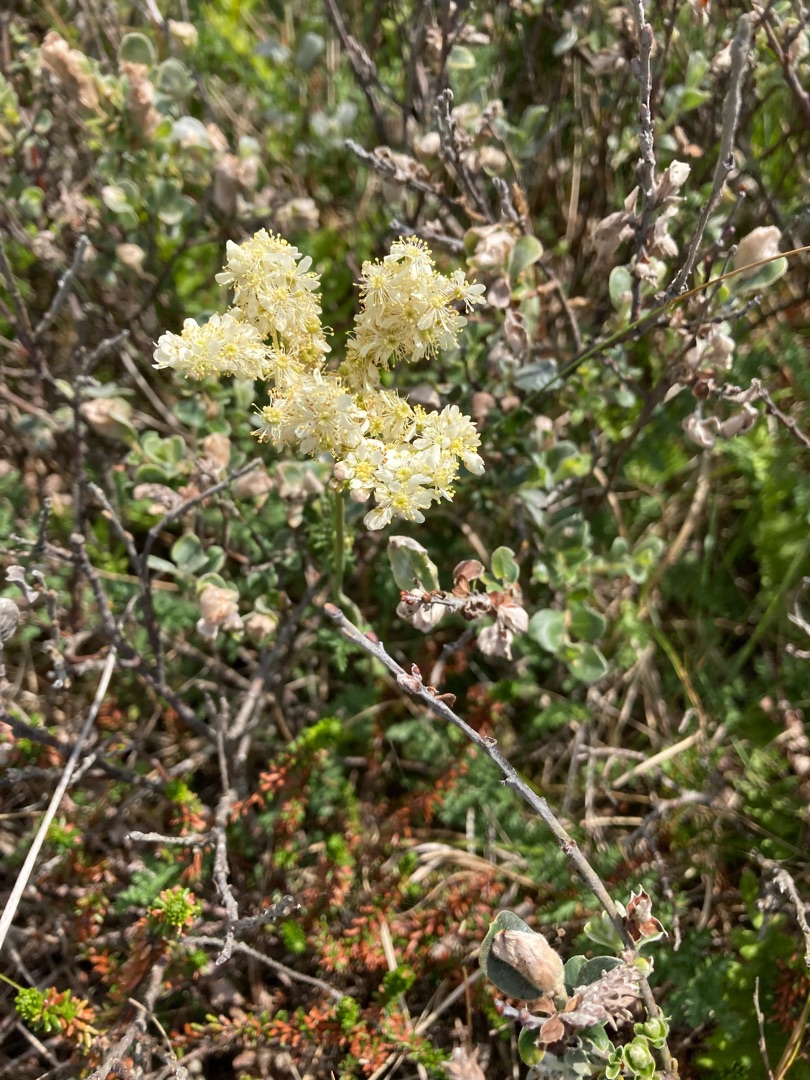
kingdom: Plantae
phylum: Tracheophyta
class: Magnoliopsida
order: Rosales
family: Rosaceae
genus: Filipendula
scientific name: Filipendula vulgaris
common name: Knoldet mjødurt
